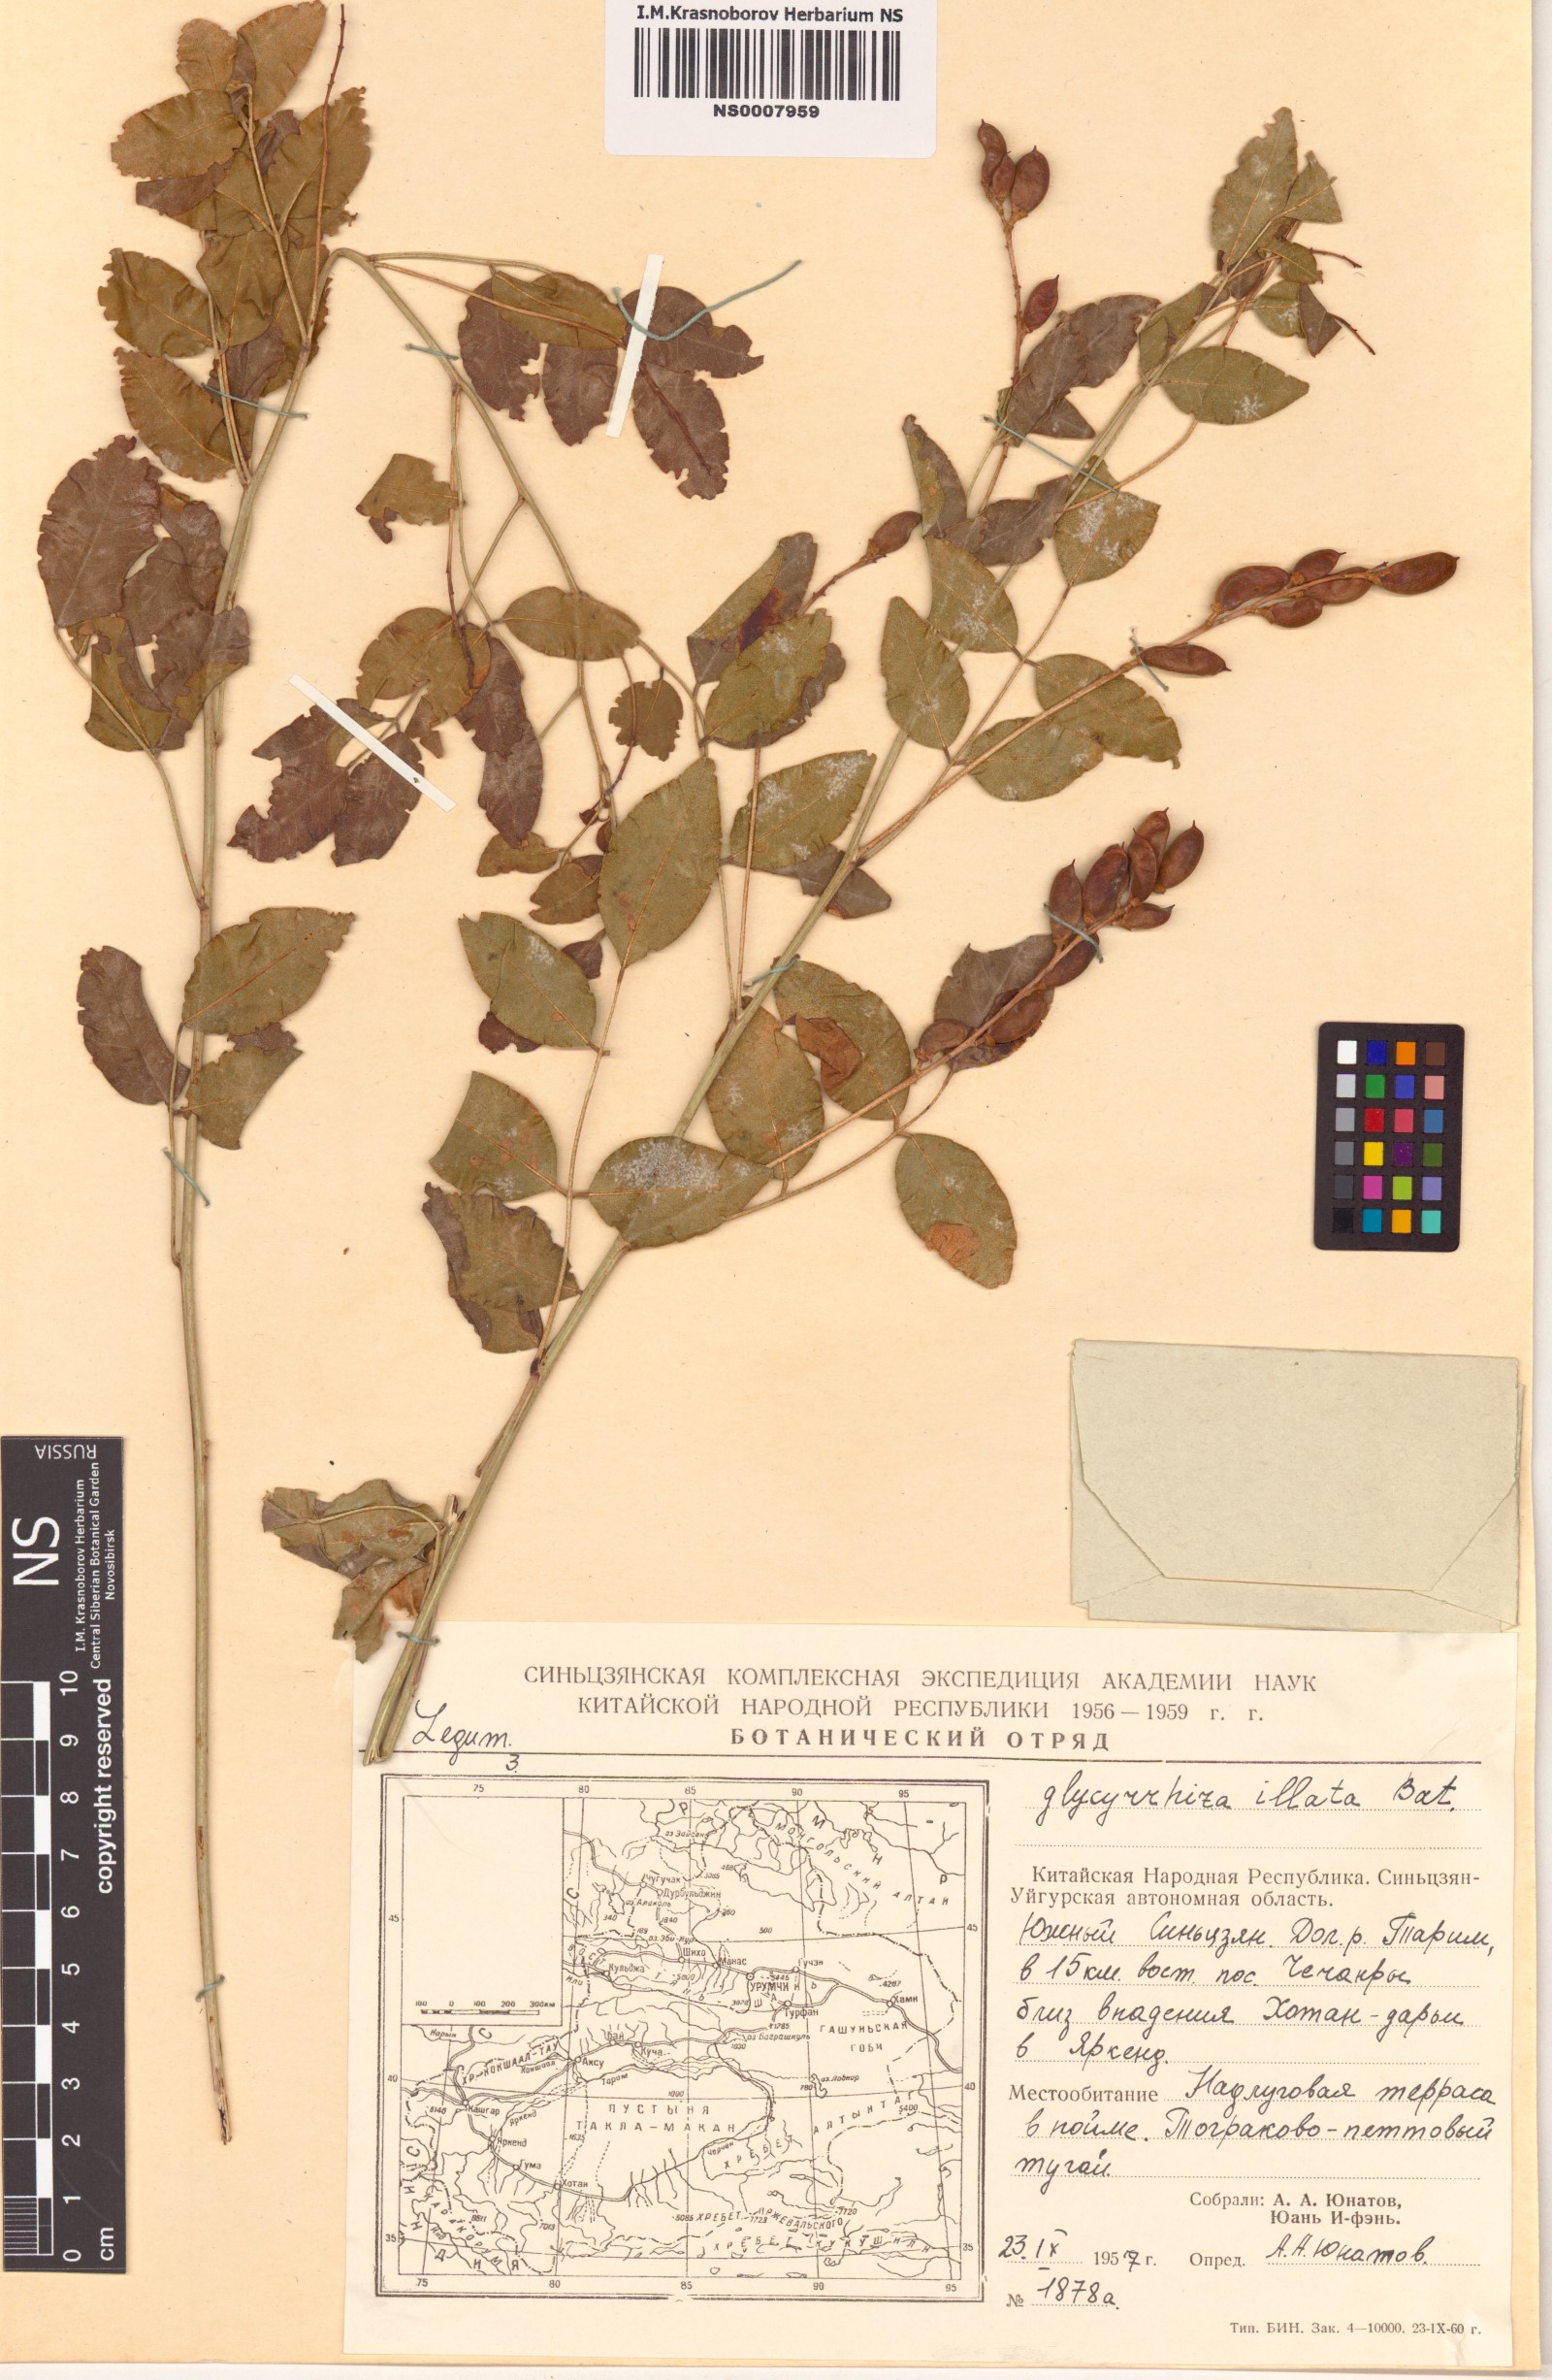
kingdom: Plantae
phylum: Tracheophyta
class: Magnoliopsida
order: Fabales
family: Fabaceae
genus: Glycyrrhiza
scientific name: Glycyrrhiza inflata
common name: Chinese licorice
